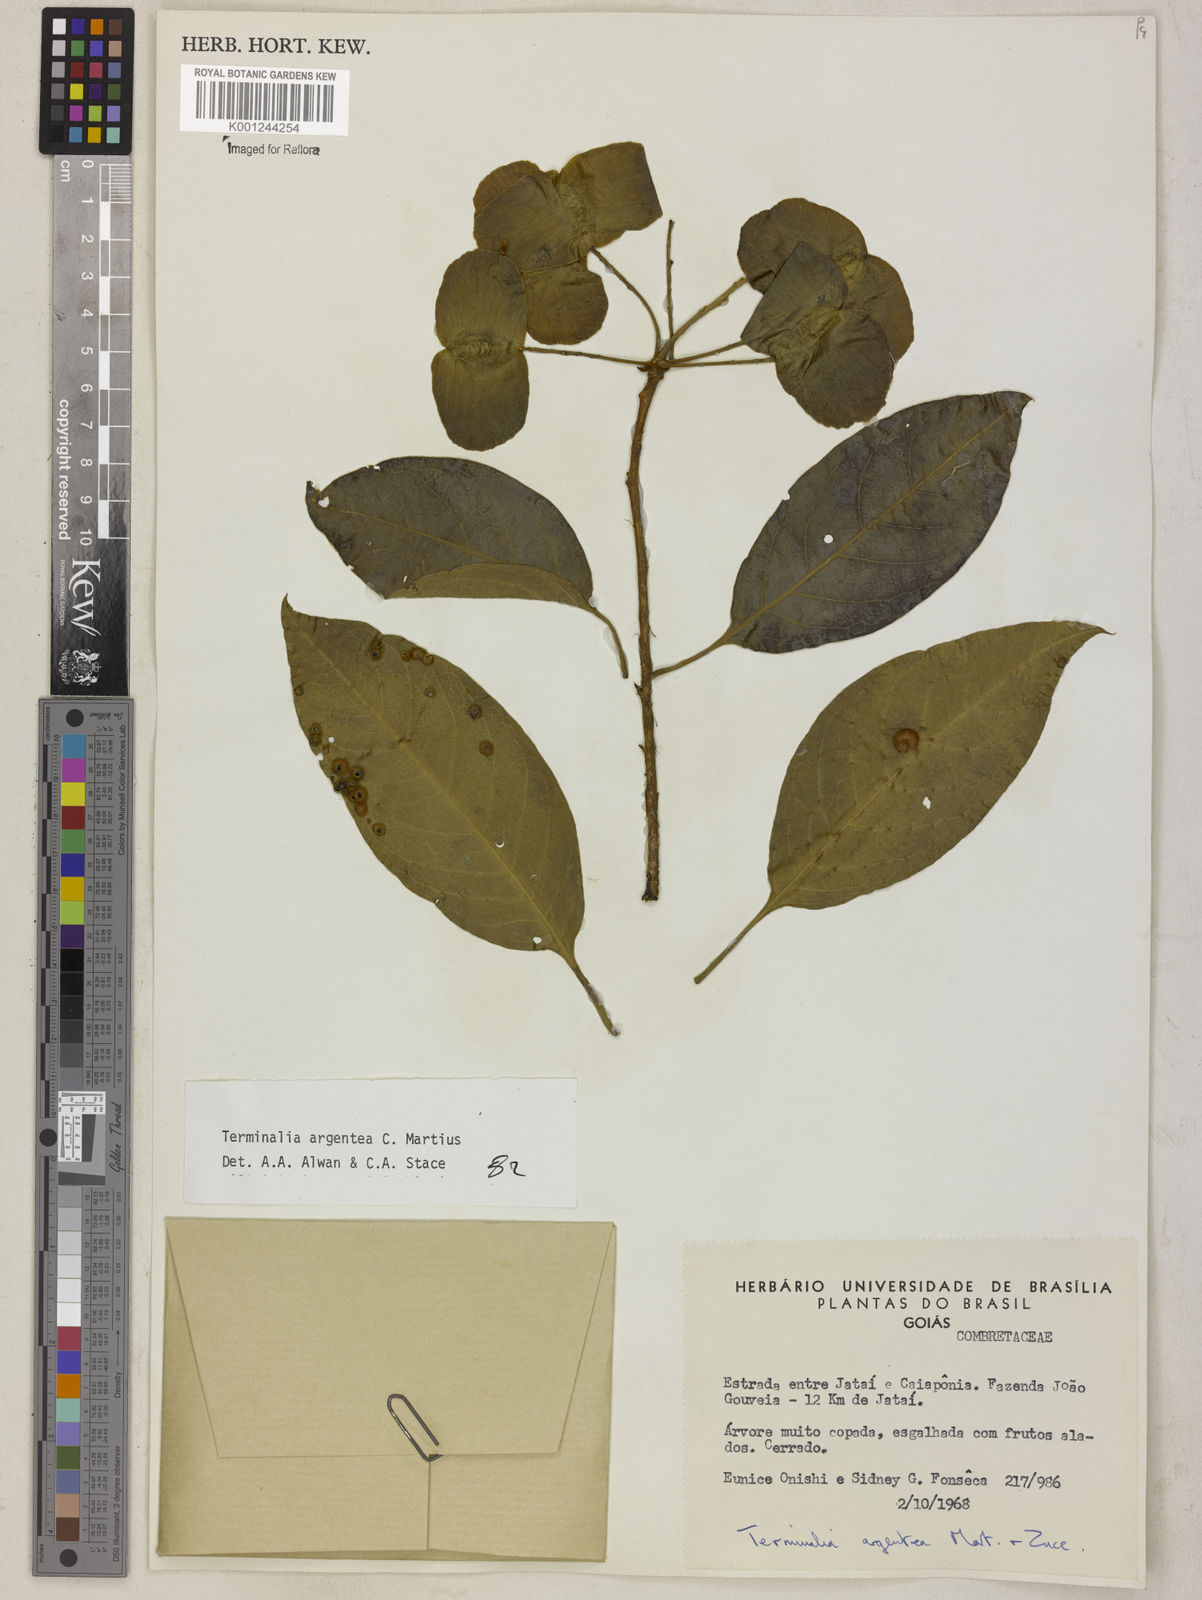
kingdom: Plantae
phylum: Tracheophyta
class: Magnoliopsida
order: Myrtales
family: Combretaceae
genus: Terminalia
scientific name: Terminalia argentea
